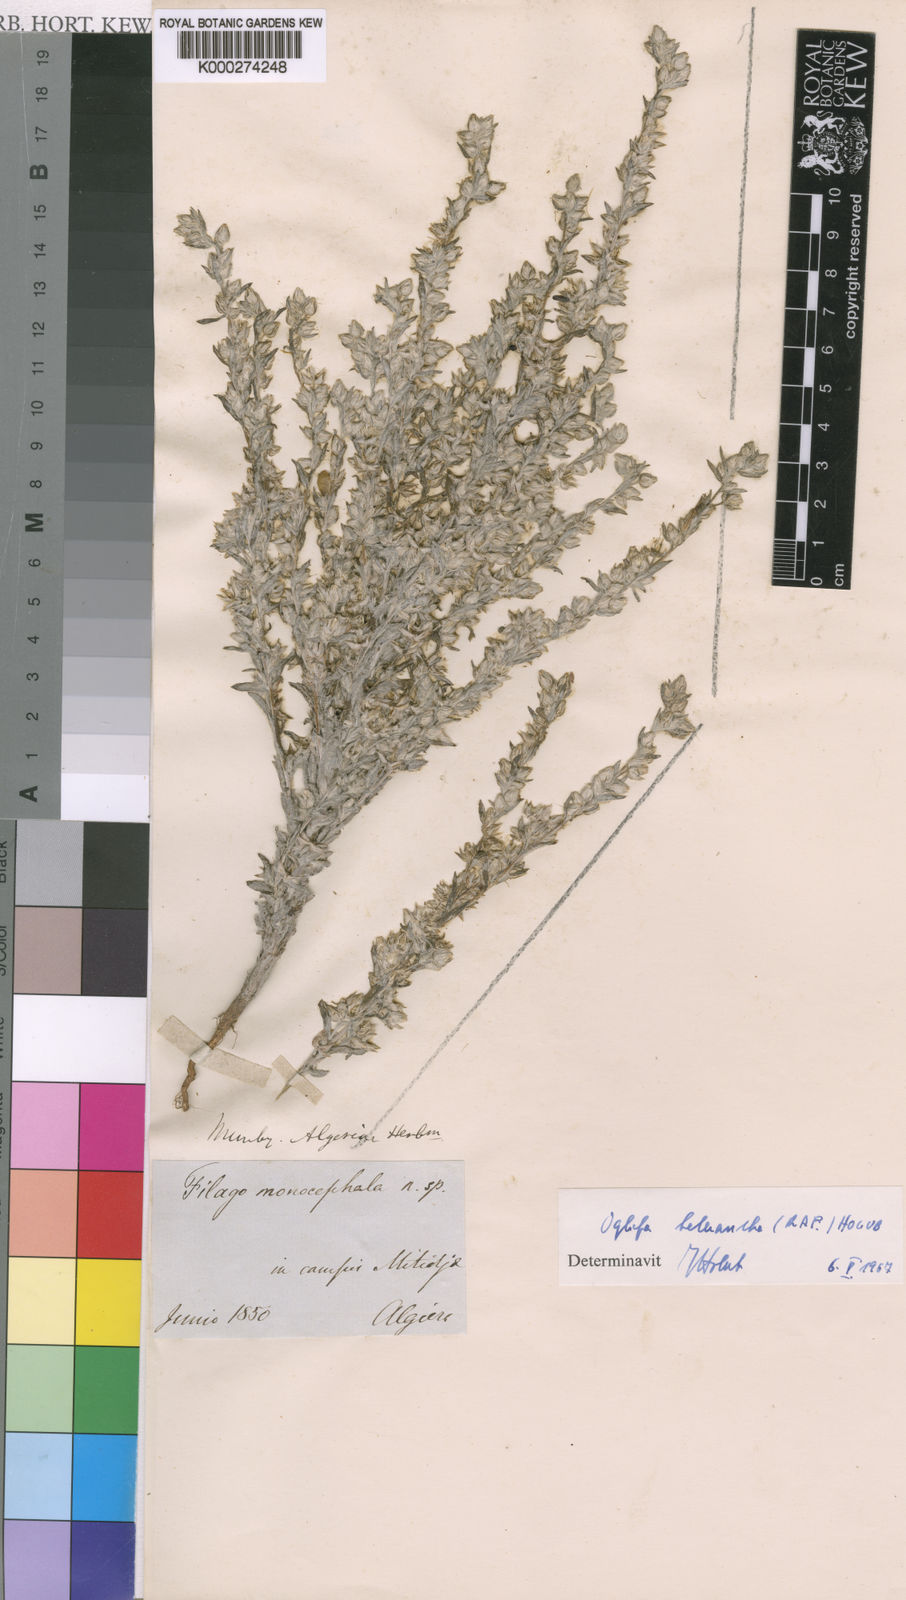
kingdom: Plantae
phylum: Tracheophyta
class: Magnoliopsida
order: Asterales
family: Asteraceae
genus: Logfia
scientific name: Logfia heterantha
